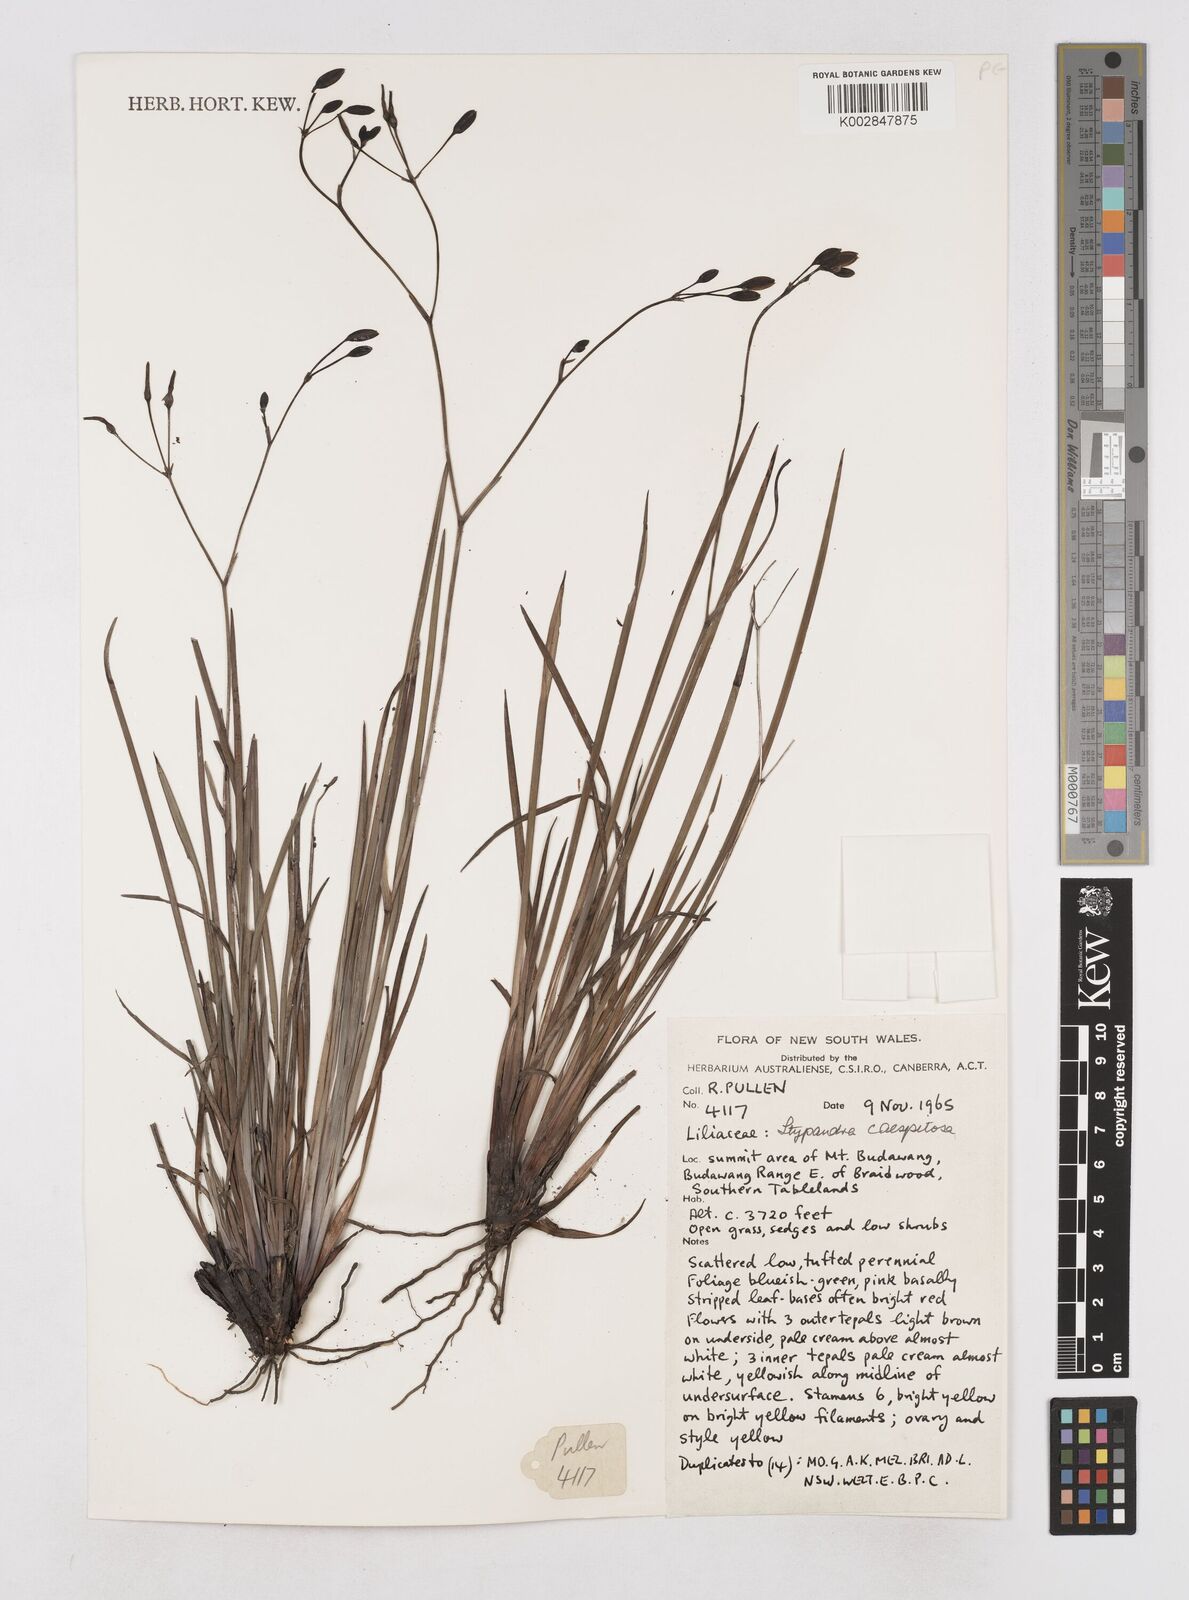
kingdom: Plantae
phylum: Tracheophyta
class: Liliopsida
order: Asparagales
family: Asphodelaceae
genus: Thelionema
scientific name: Thelionema caespitosum
